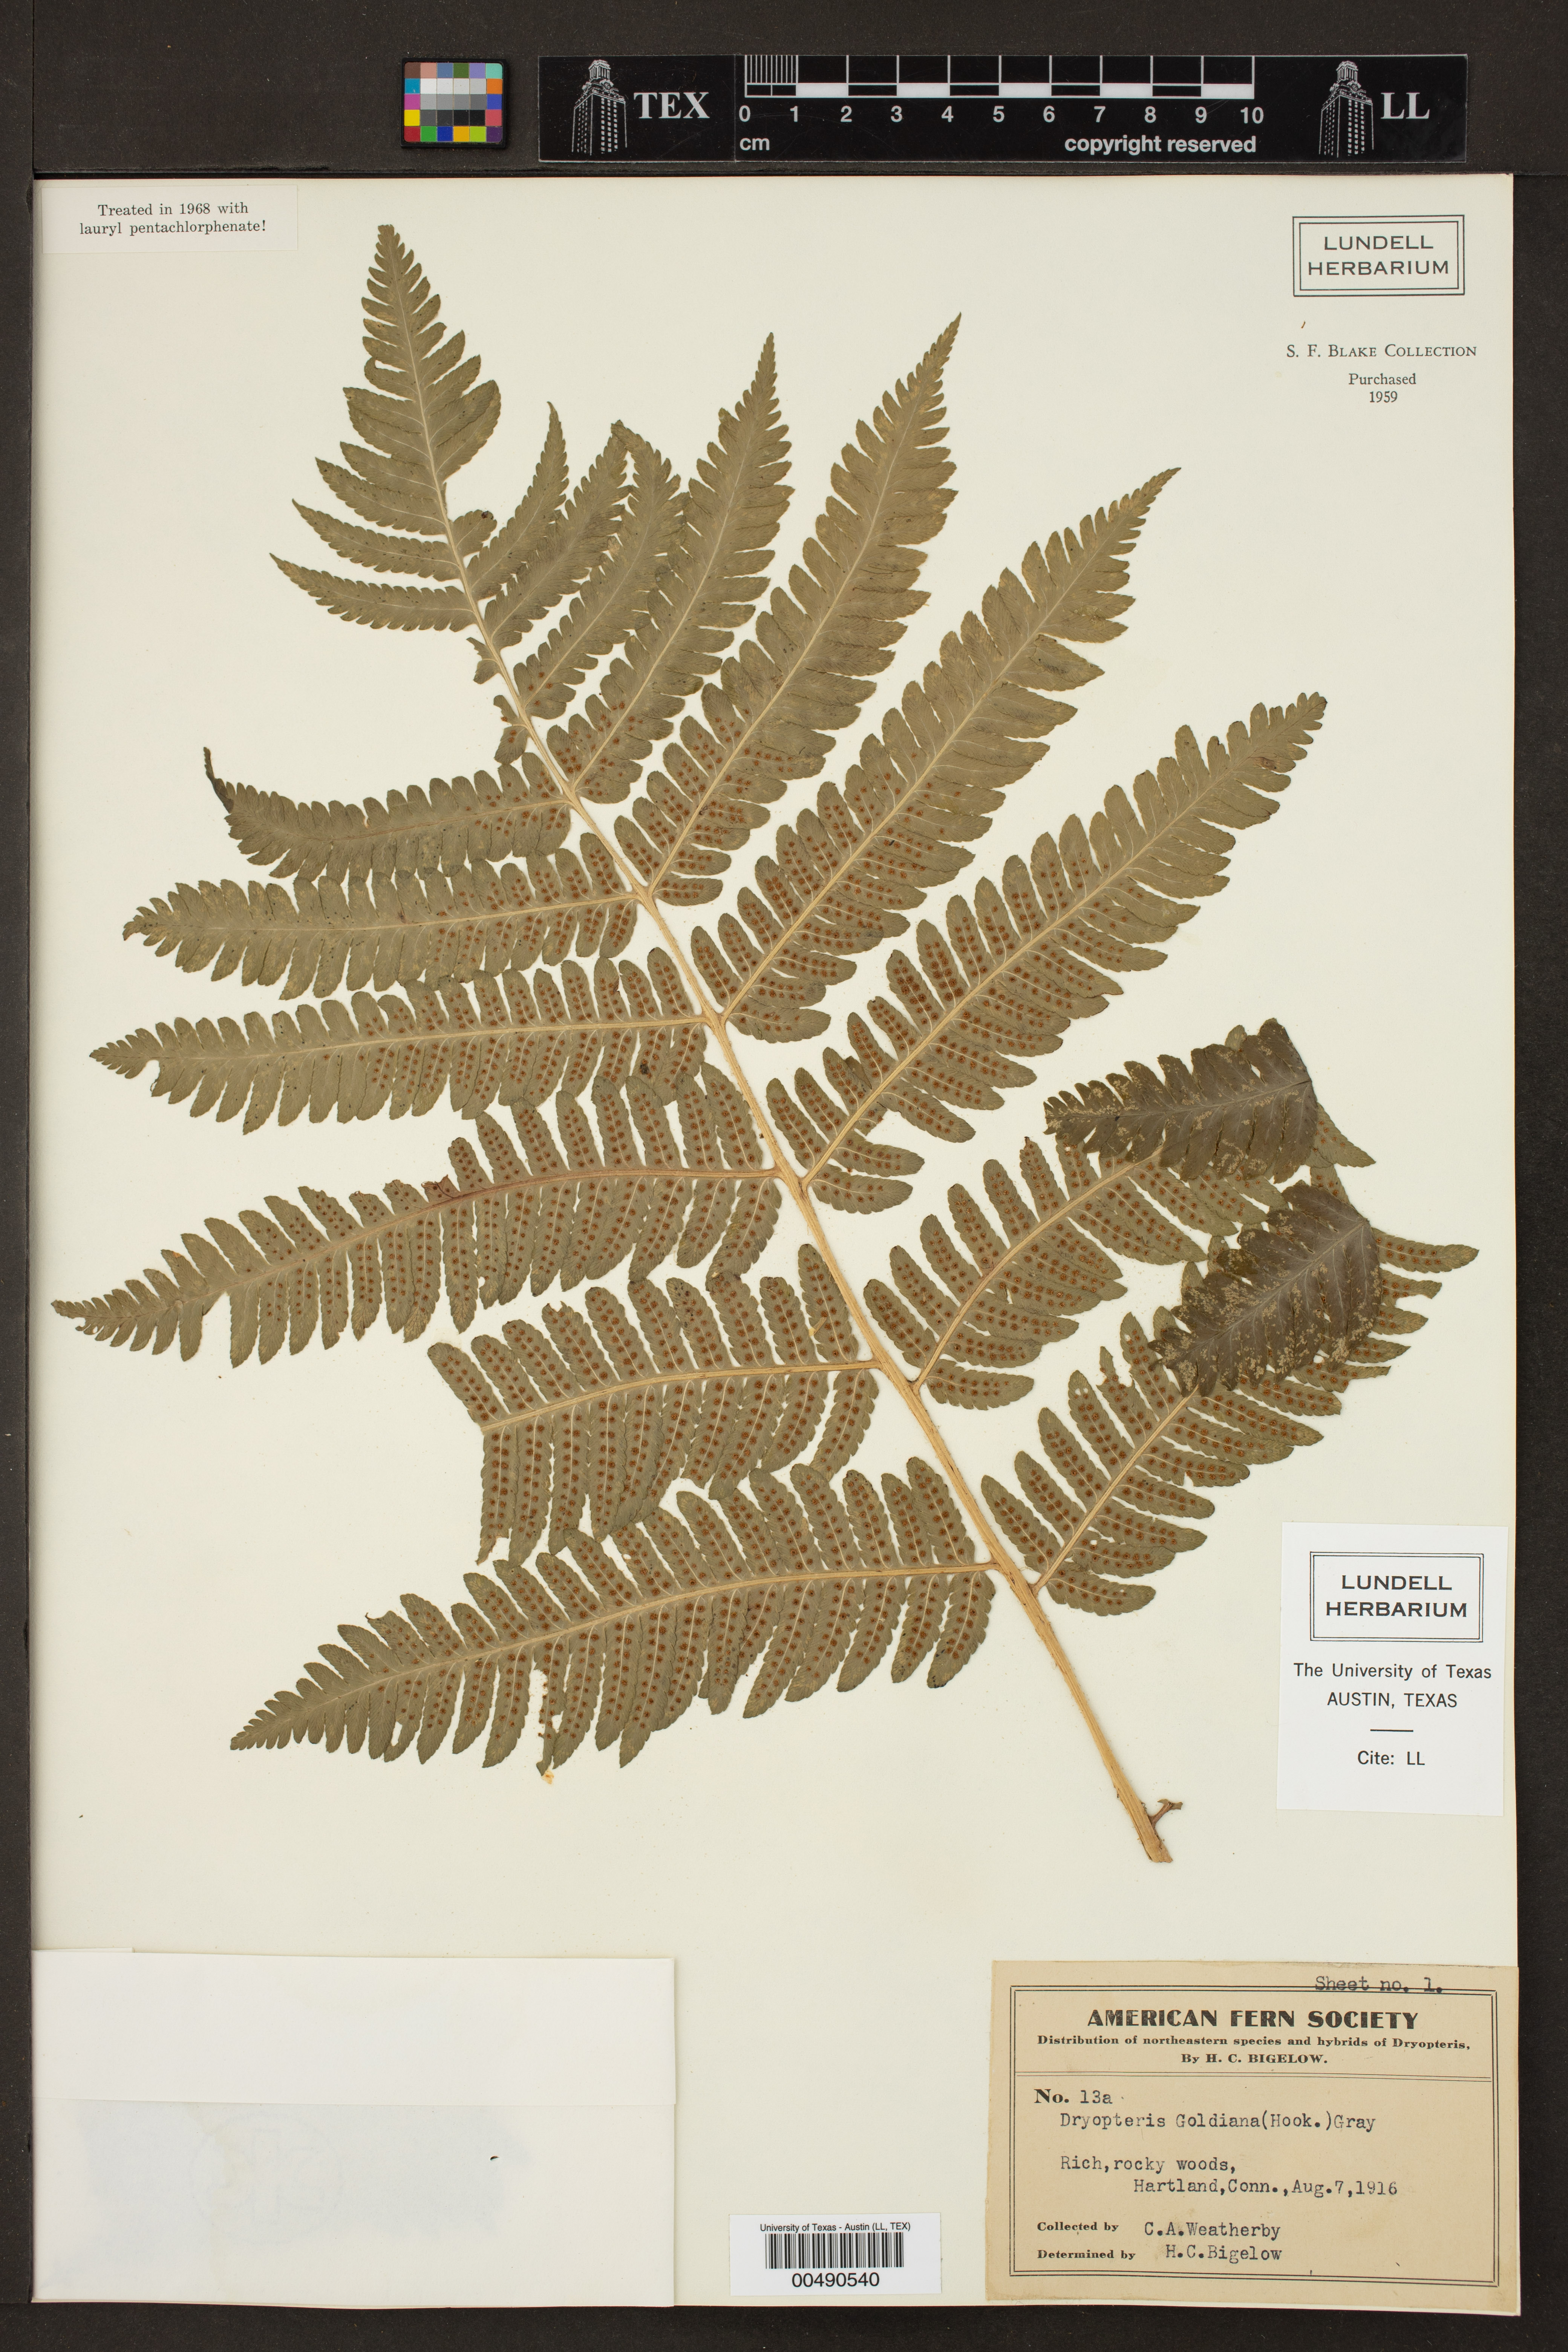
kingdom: Plantae
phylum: Tracheophyta
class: Polypodiopsida
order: Polypodiales
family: Dryopteridaceae
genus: Dryopteris
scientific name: Dryopteris goldieana
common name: Goldie's fern
